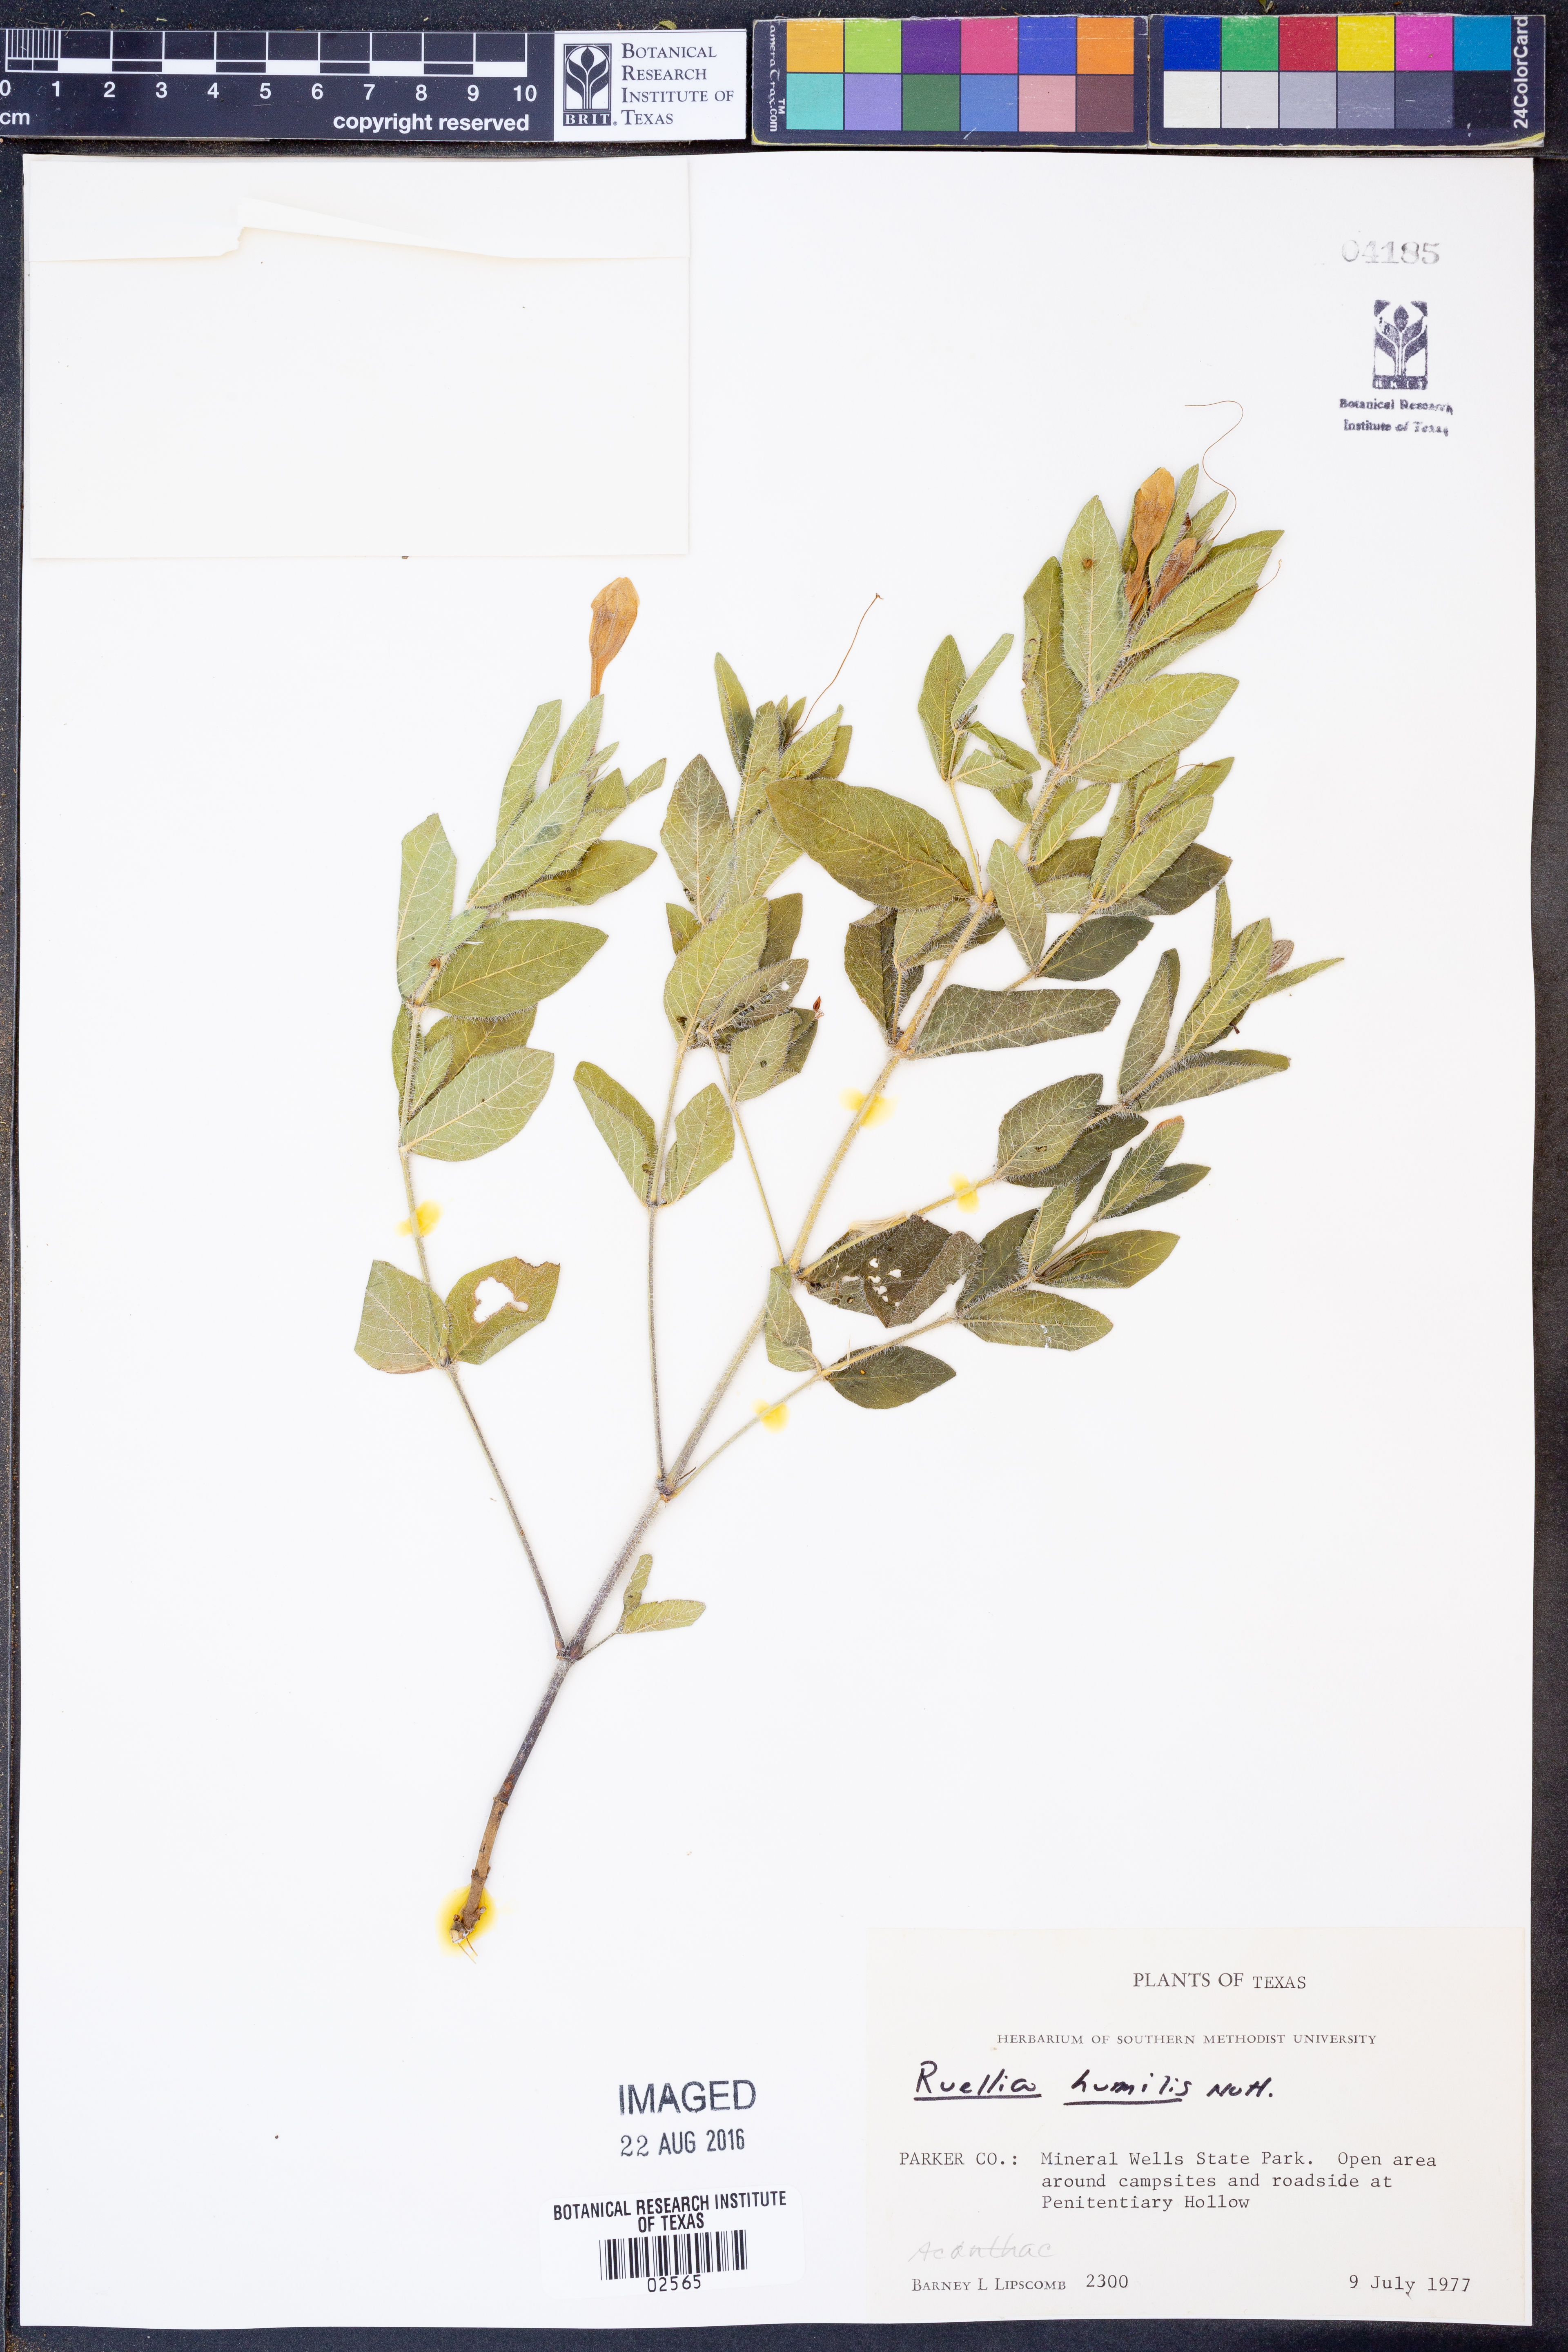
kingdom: Plantae
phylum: Tracheophyta
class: Magnoliopsida
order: Lamiales
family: Acanthaceae
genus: Ruellia
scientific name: Ruellia humilis
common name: Fringe-leaf ruellia
